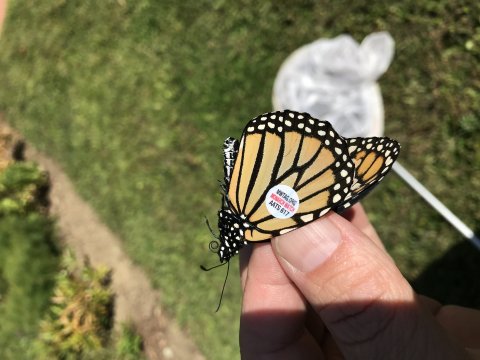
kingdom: Animalia
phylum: Arthropoda
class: Insecta
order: Lepidoptera
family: Nymphalidae
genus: Danaus
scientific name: Danaus plexippus
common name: Monarch
